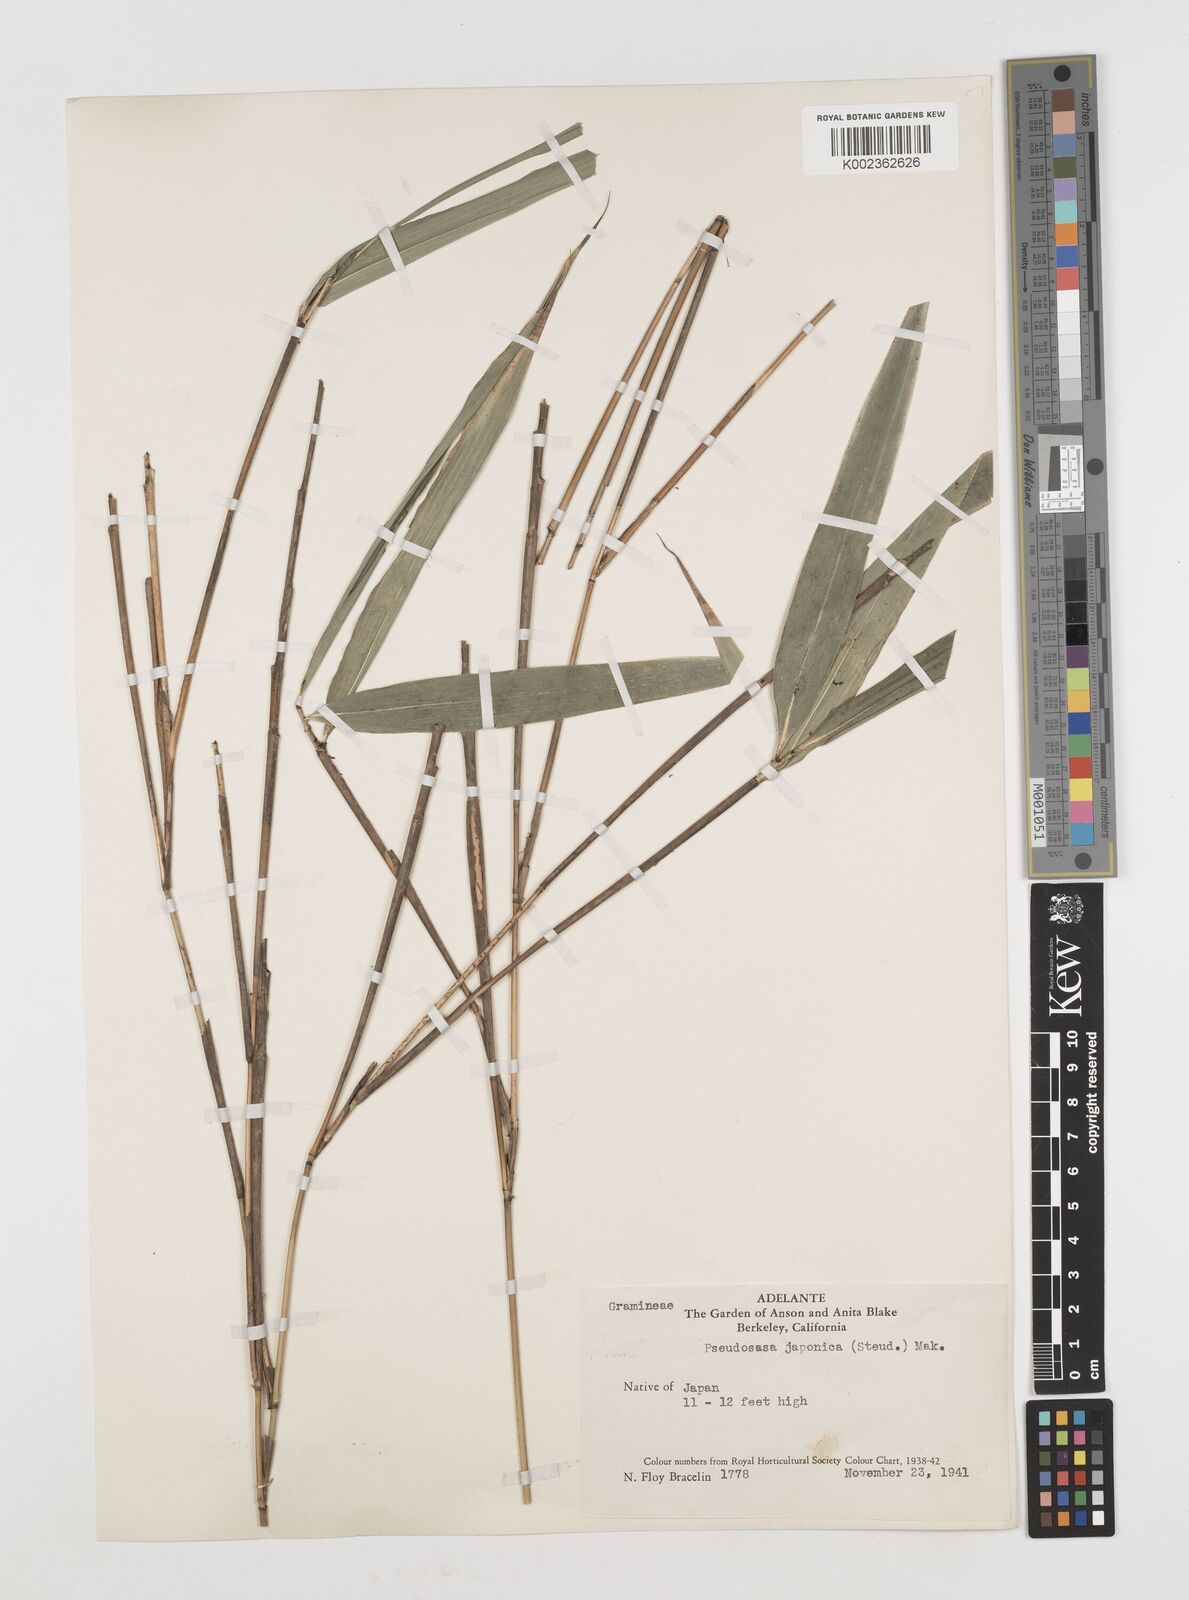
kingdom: Plantae
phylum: Tracheophyta
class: Liliopsida
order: Poales
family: Poaceae
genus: Pseudosasa
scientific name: Pseudosasa japonica
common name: Arrow bamboo
